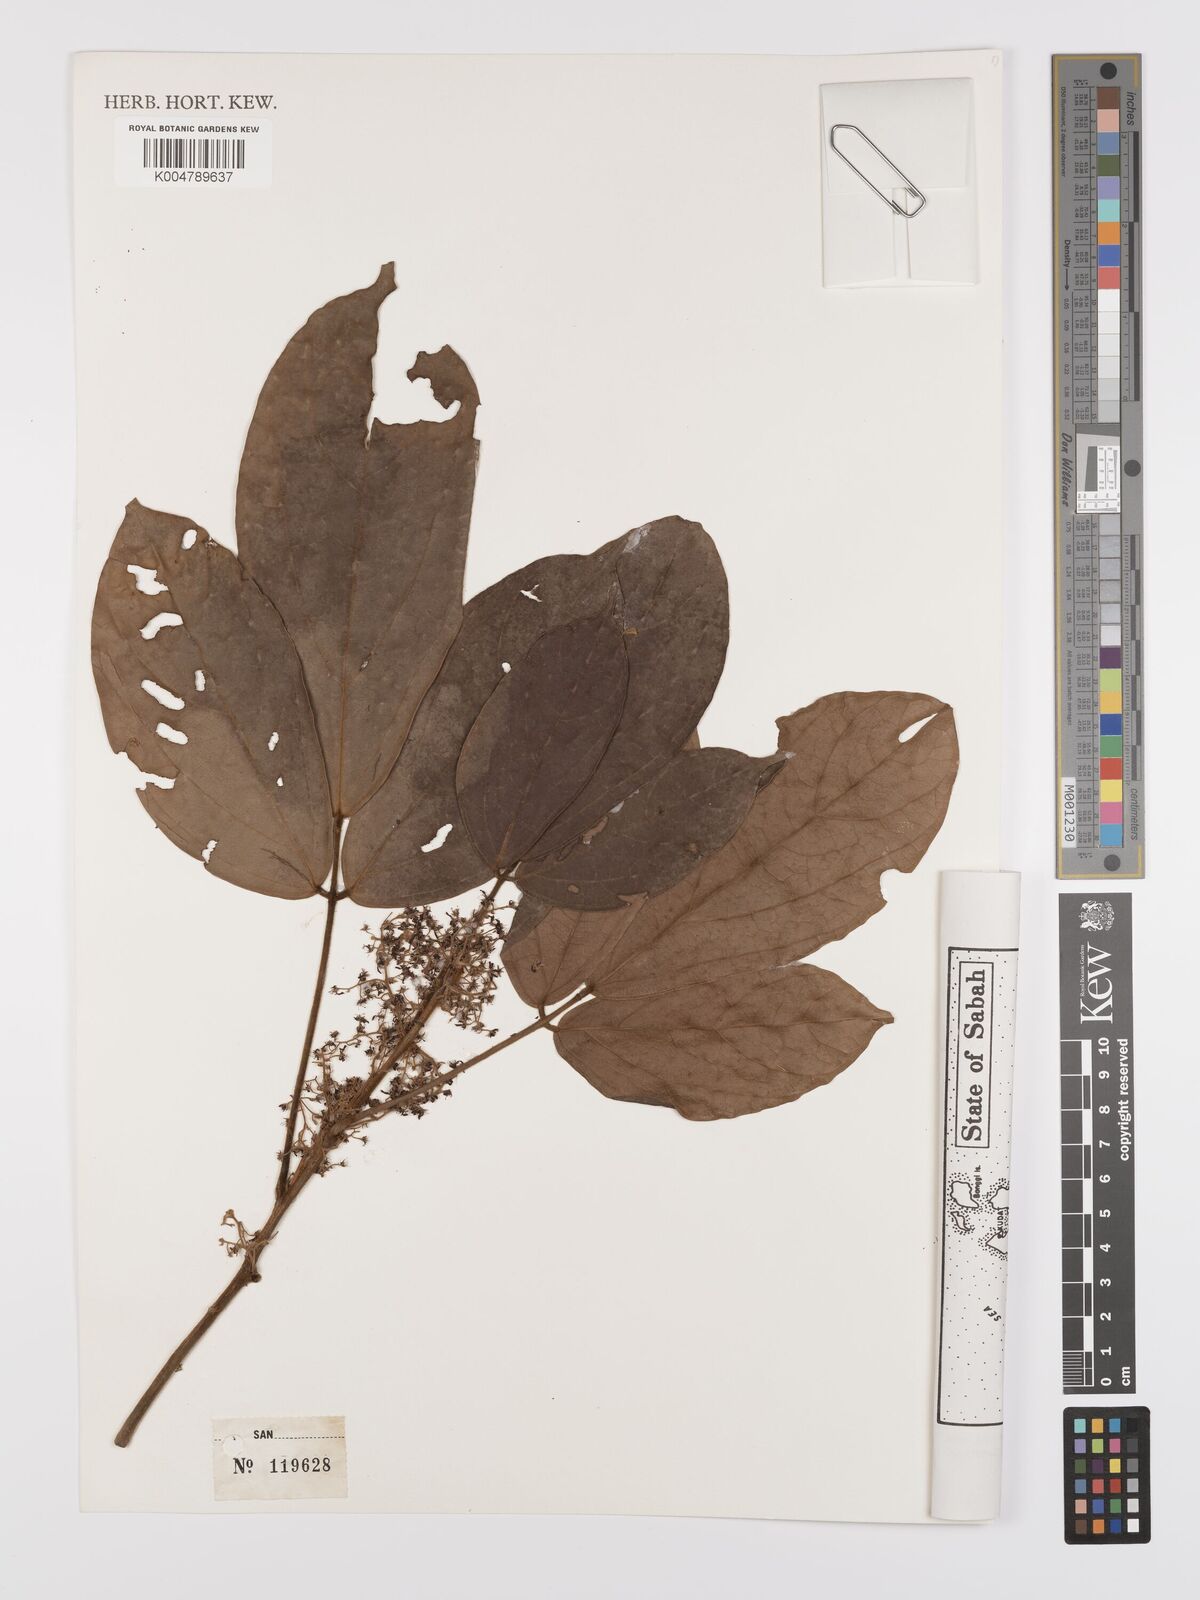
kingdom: Plantae
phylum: Tracheophyta
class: Magnoliopsida
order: Oxalidales
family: Connaraceae
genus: Agelaea
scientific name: Agelaea borneensis
